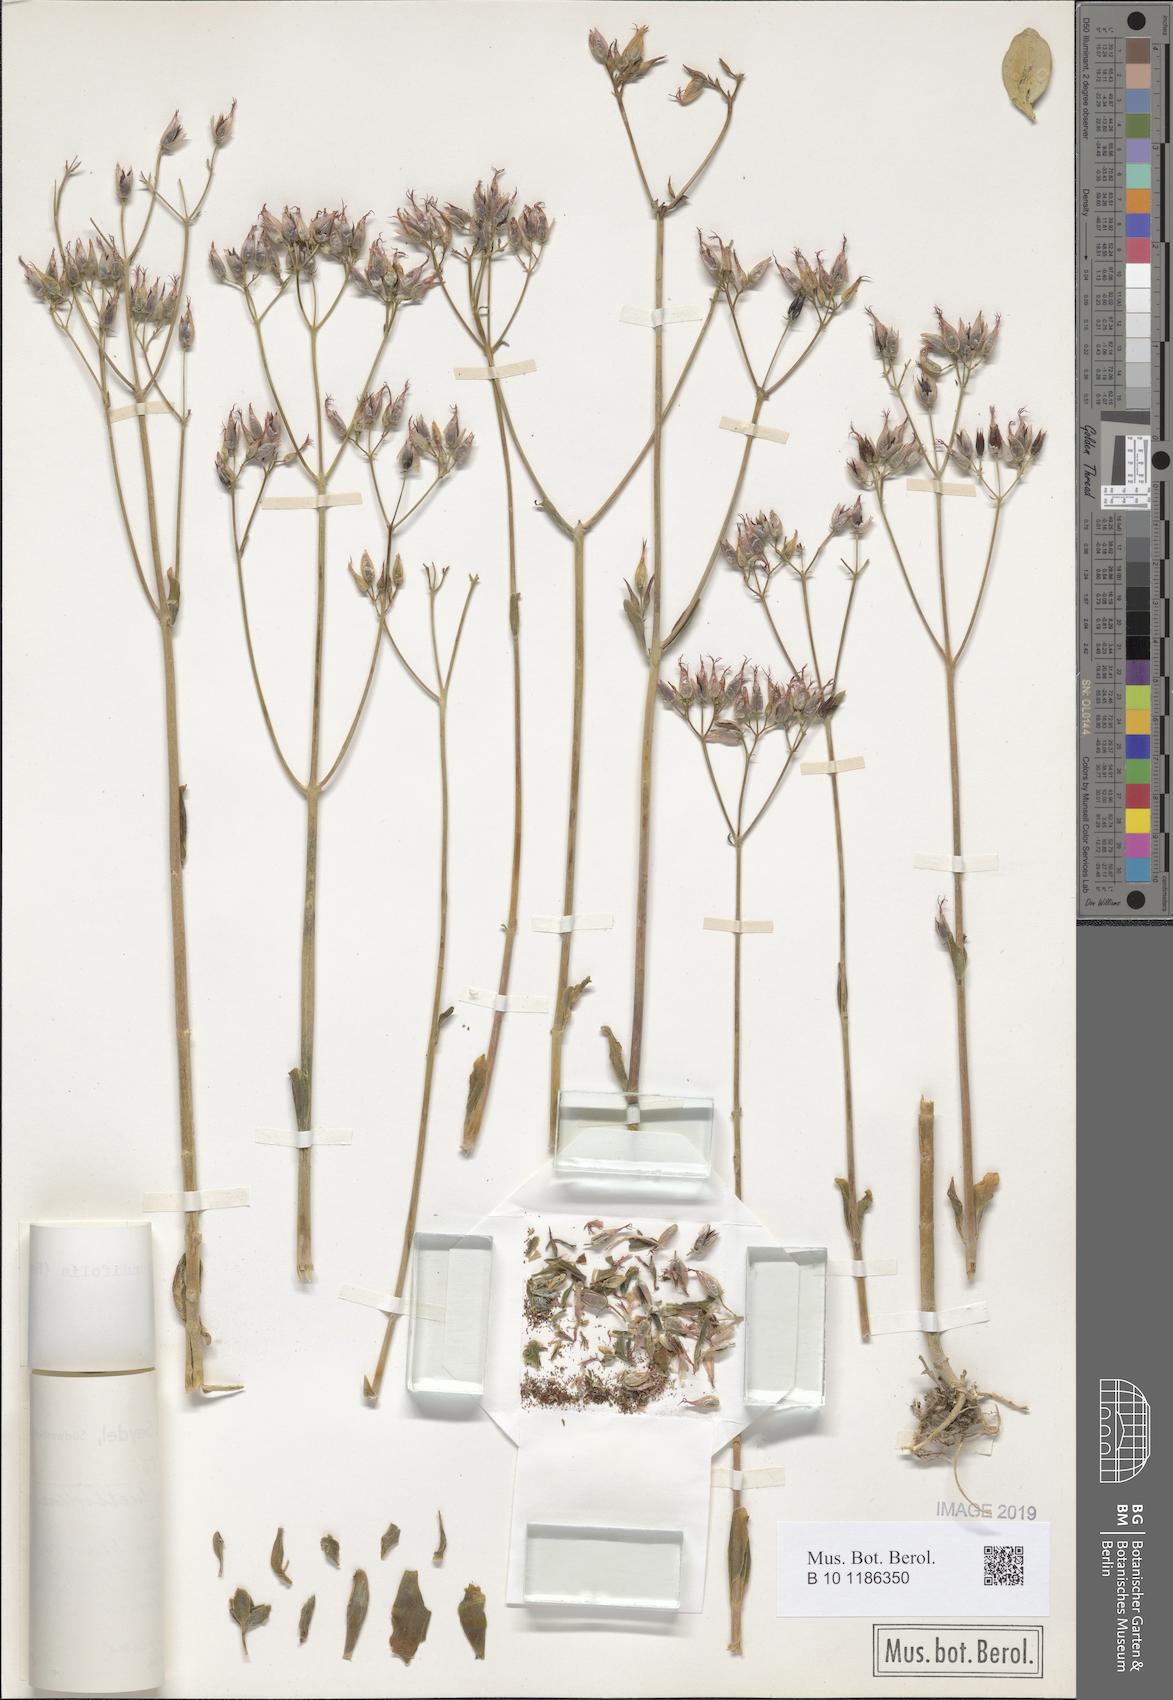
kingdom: Plantae
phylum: Tracheophyta
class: Magnoliopsida
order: Saxifragales
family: Crassulaceae
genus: Kalanchoe
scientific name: Kalanchoe rotundifolia
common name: Common kalanchoe
